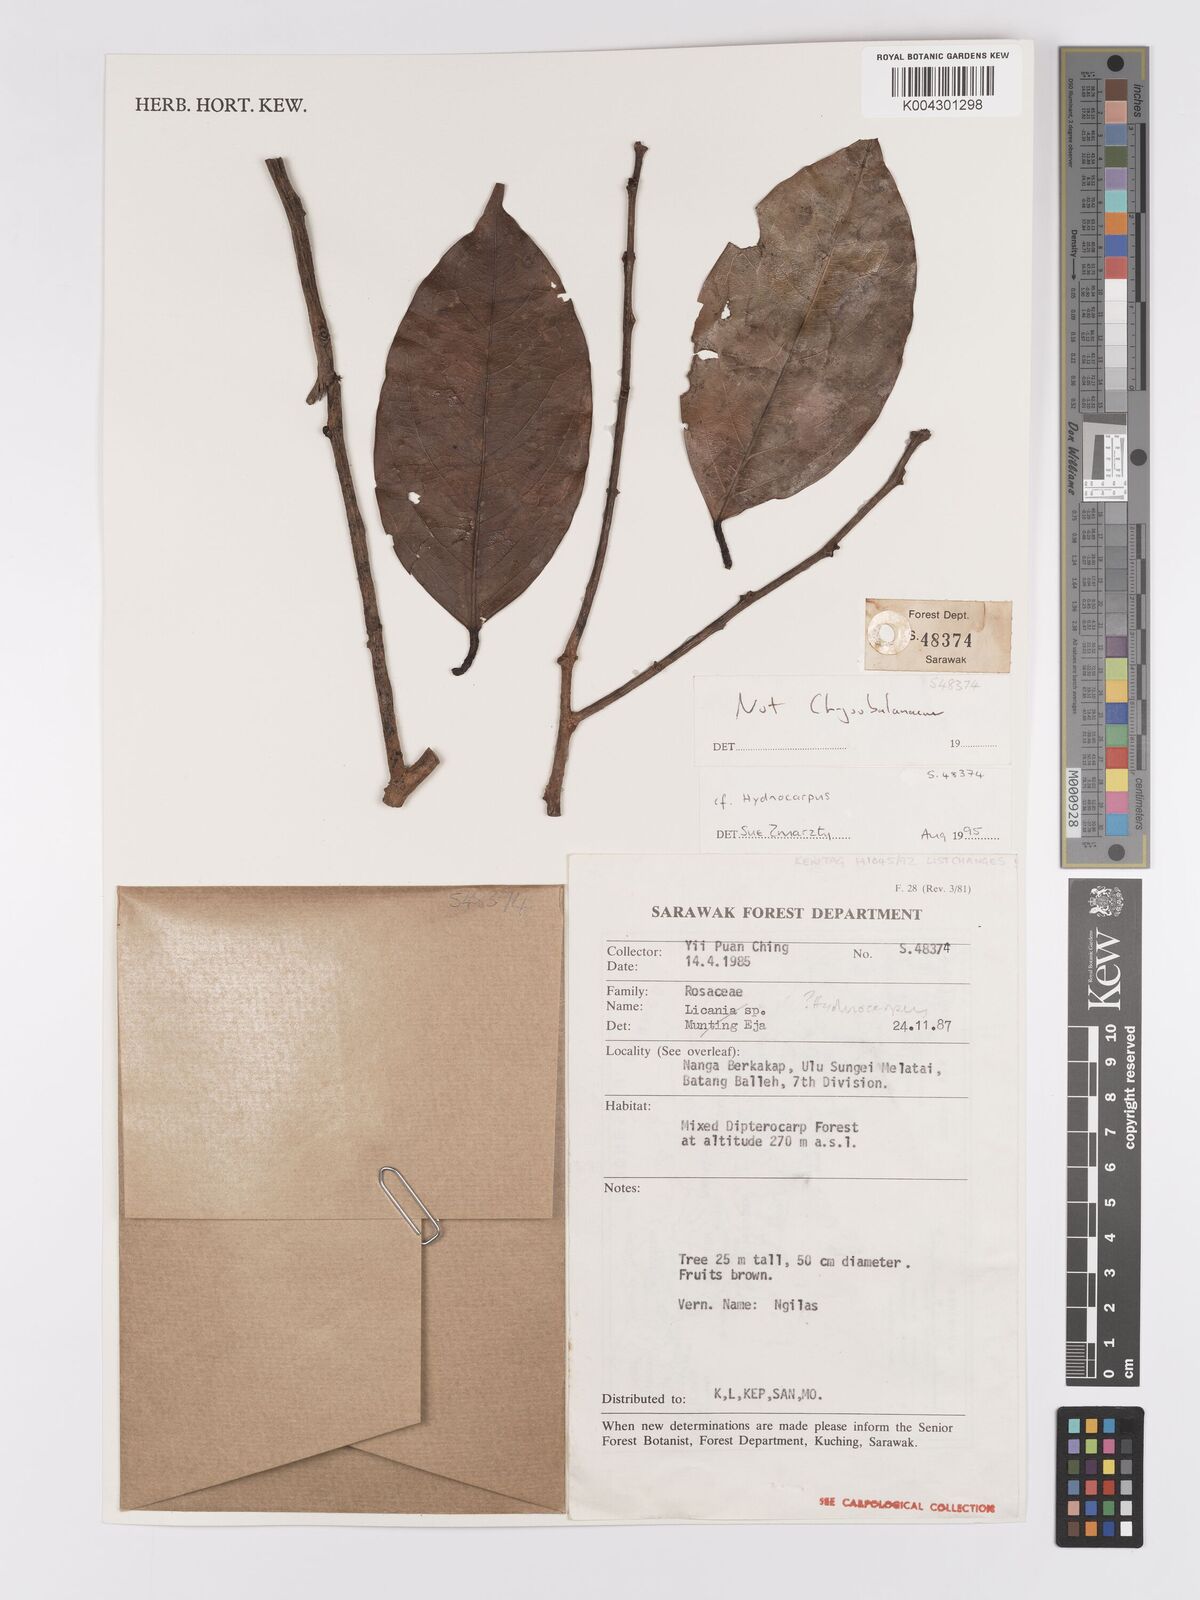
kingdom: Plantae
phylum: Tracheophyta
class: Magnoliopsida
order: Malpighiales
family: Achariaceae
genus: Hydnocarpus
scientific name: Hydnocarpus
